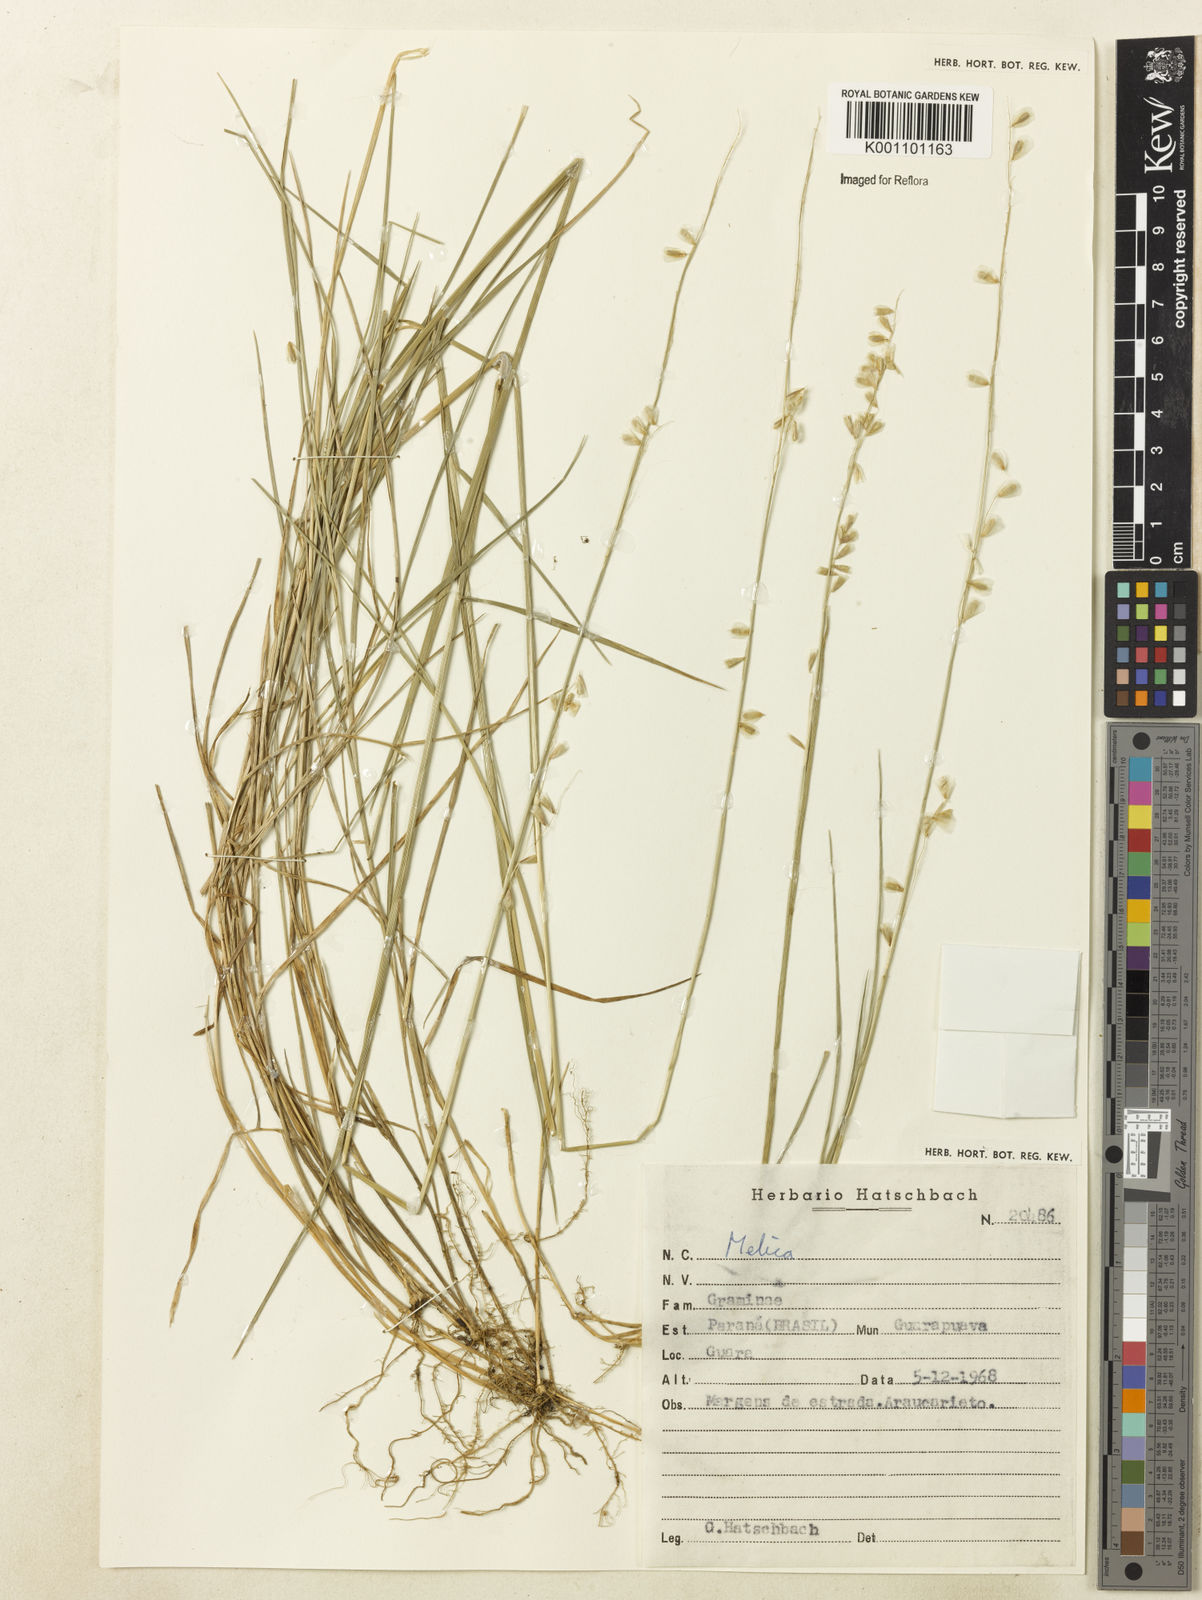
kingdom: Plantae
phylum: Tracheophyta
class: Liliopsida
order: Poales
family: Poaceae
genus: Melica
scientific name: Melica
